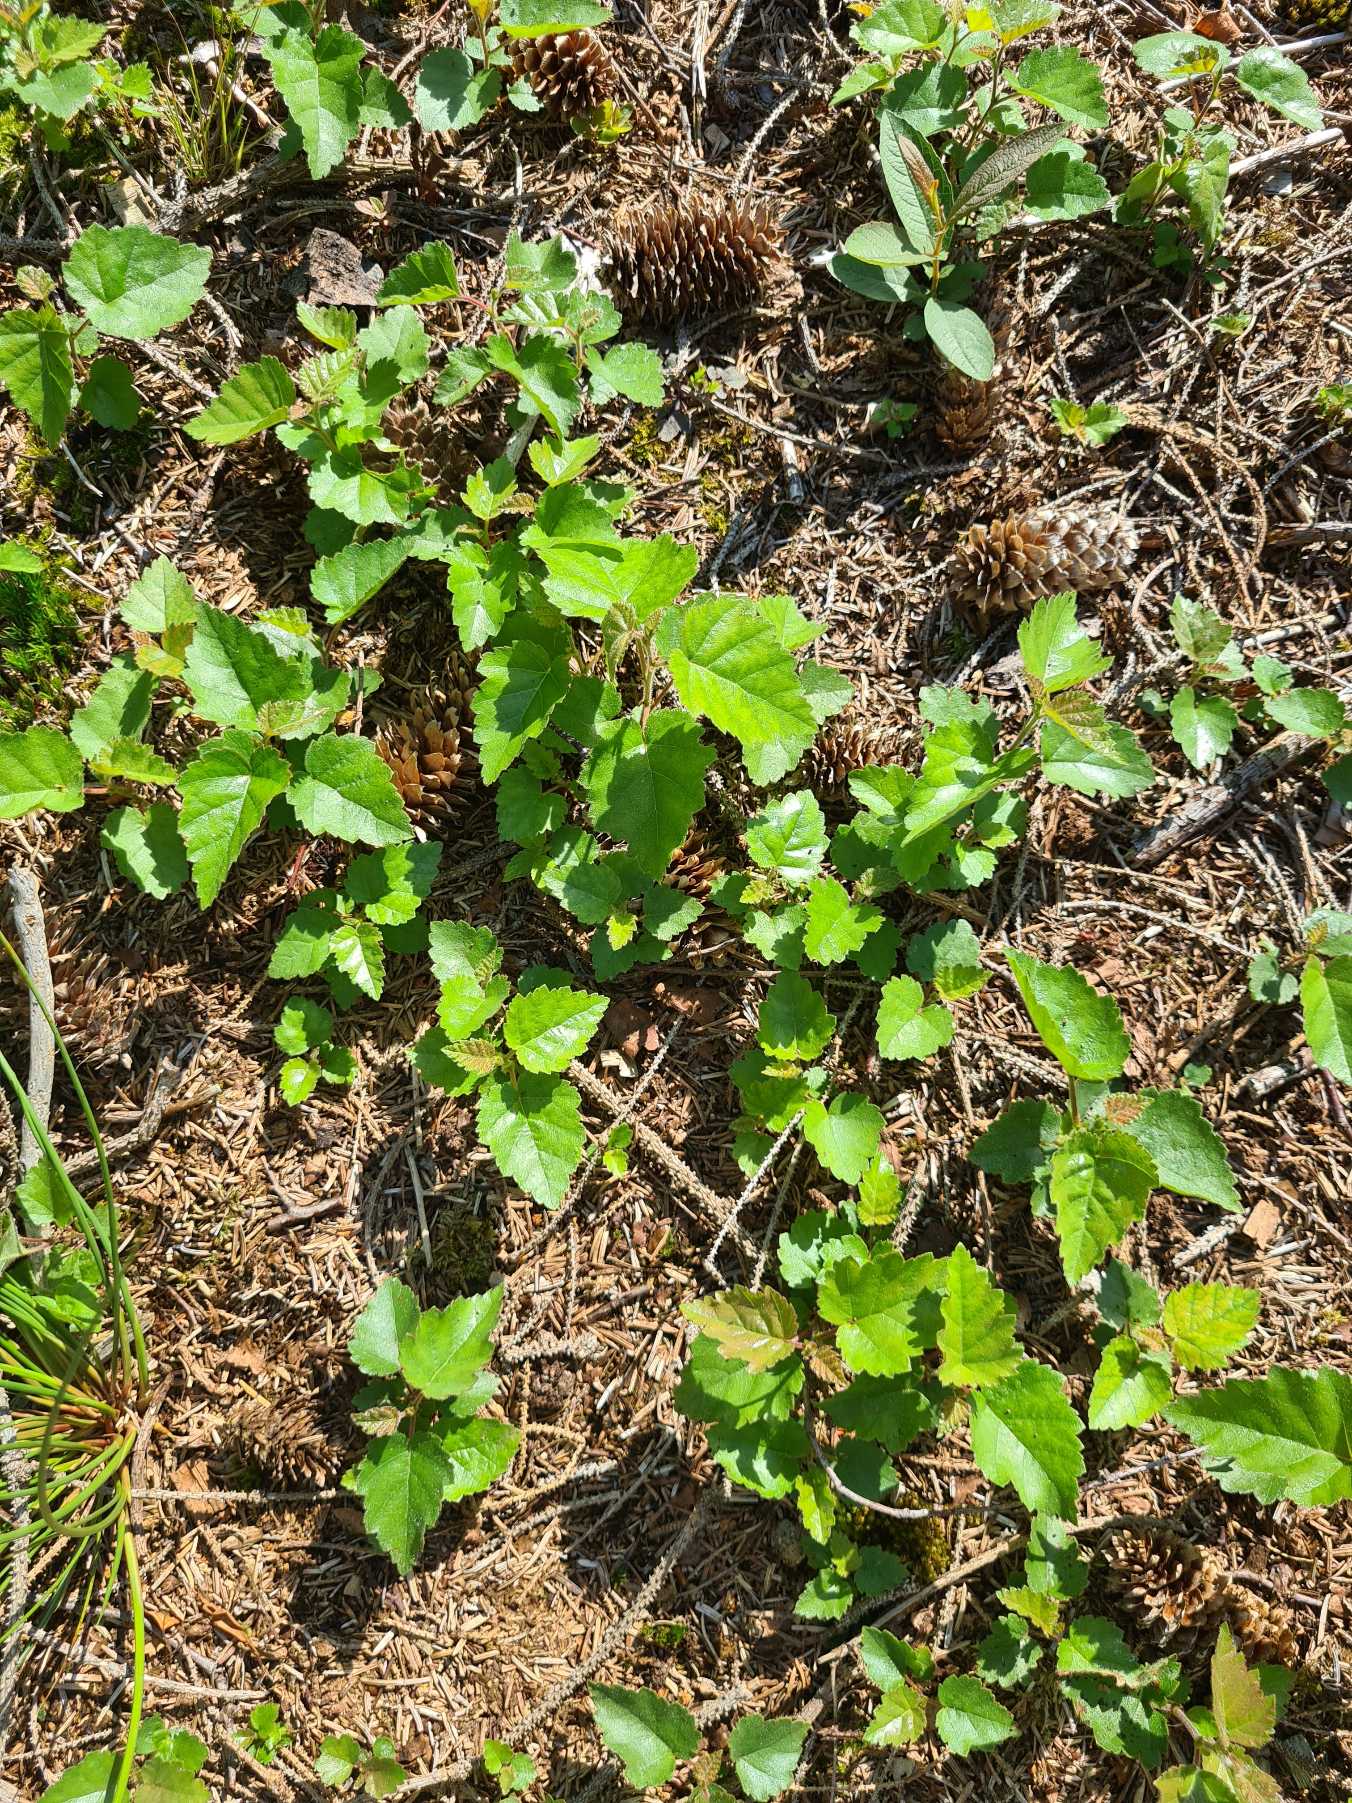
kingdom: Plantae
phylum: Tracheophyta
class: Magnoliopsida
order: Fagales
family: Betulaceae
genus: Betula
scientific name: Betula pubescens
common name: Dun-birk
